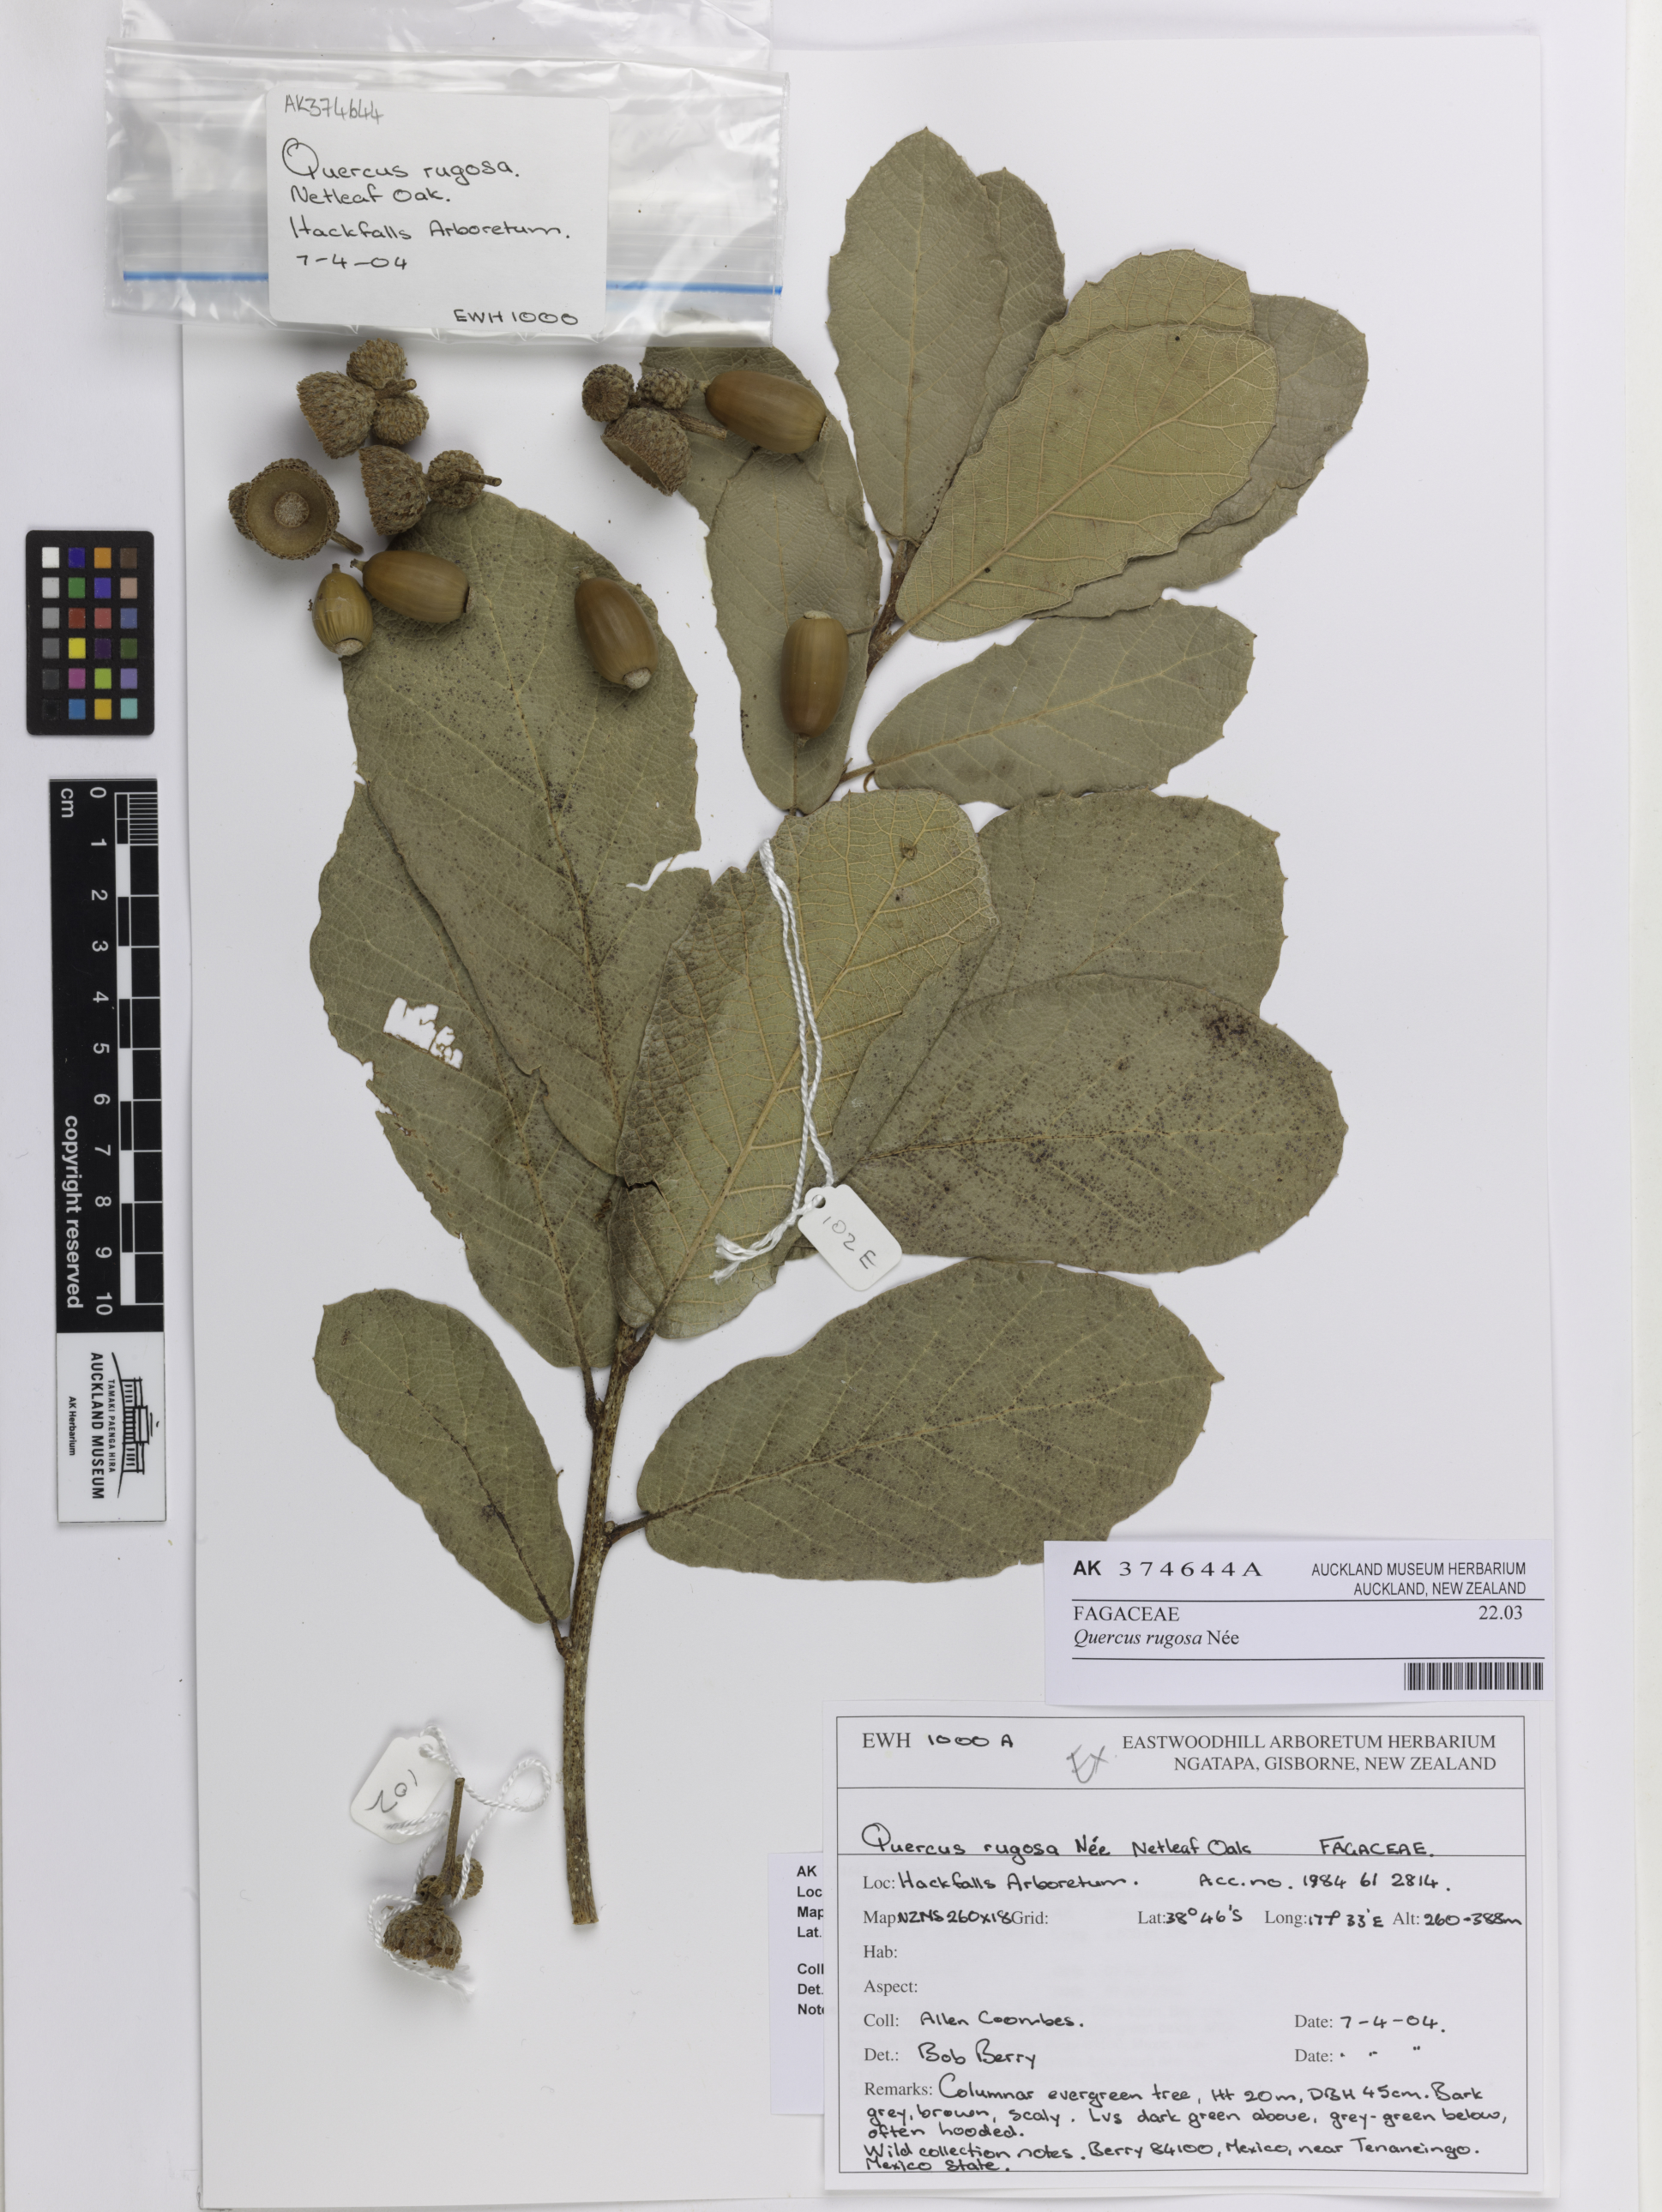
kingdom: Plantae
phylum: Tracheophyta
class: Magnoliopsida
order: Fagales
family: Fagaceae
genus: Quercus
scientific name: Quercus rugosa
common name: Netleaf oak
